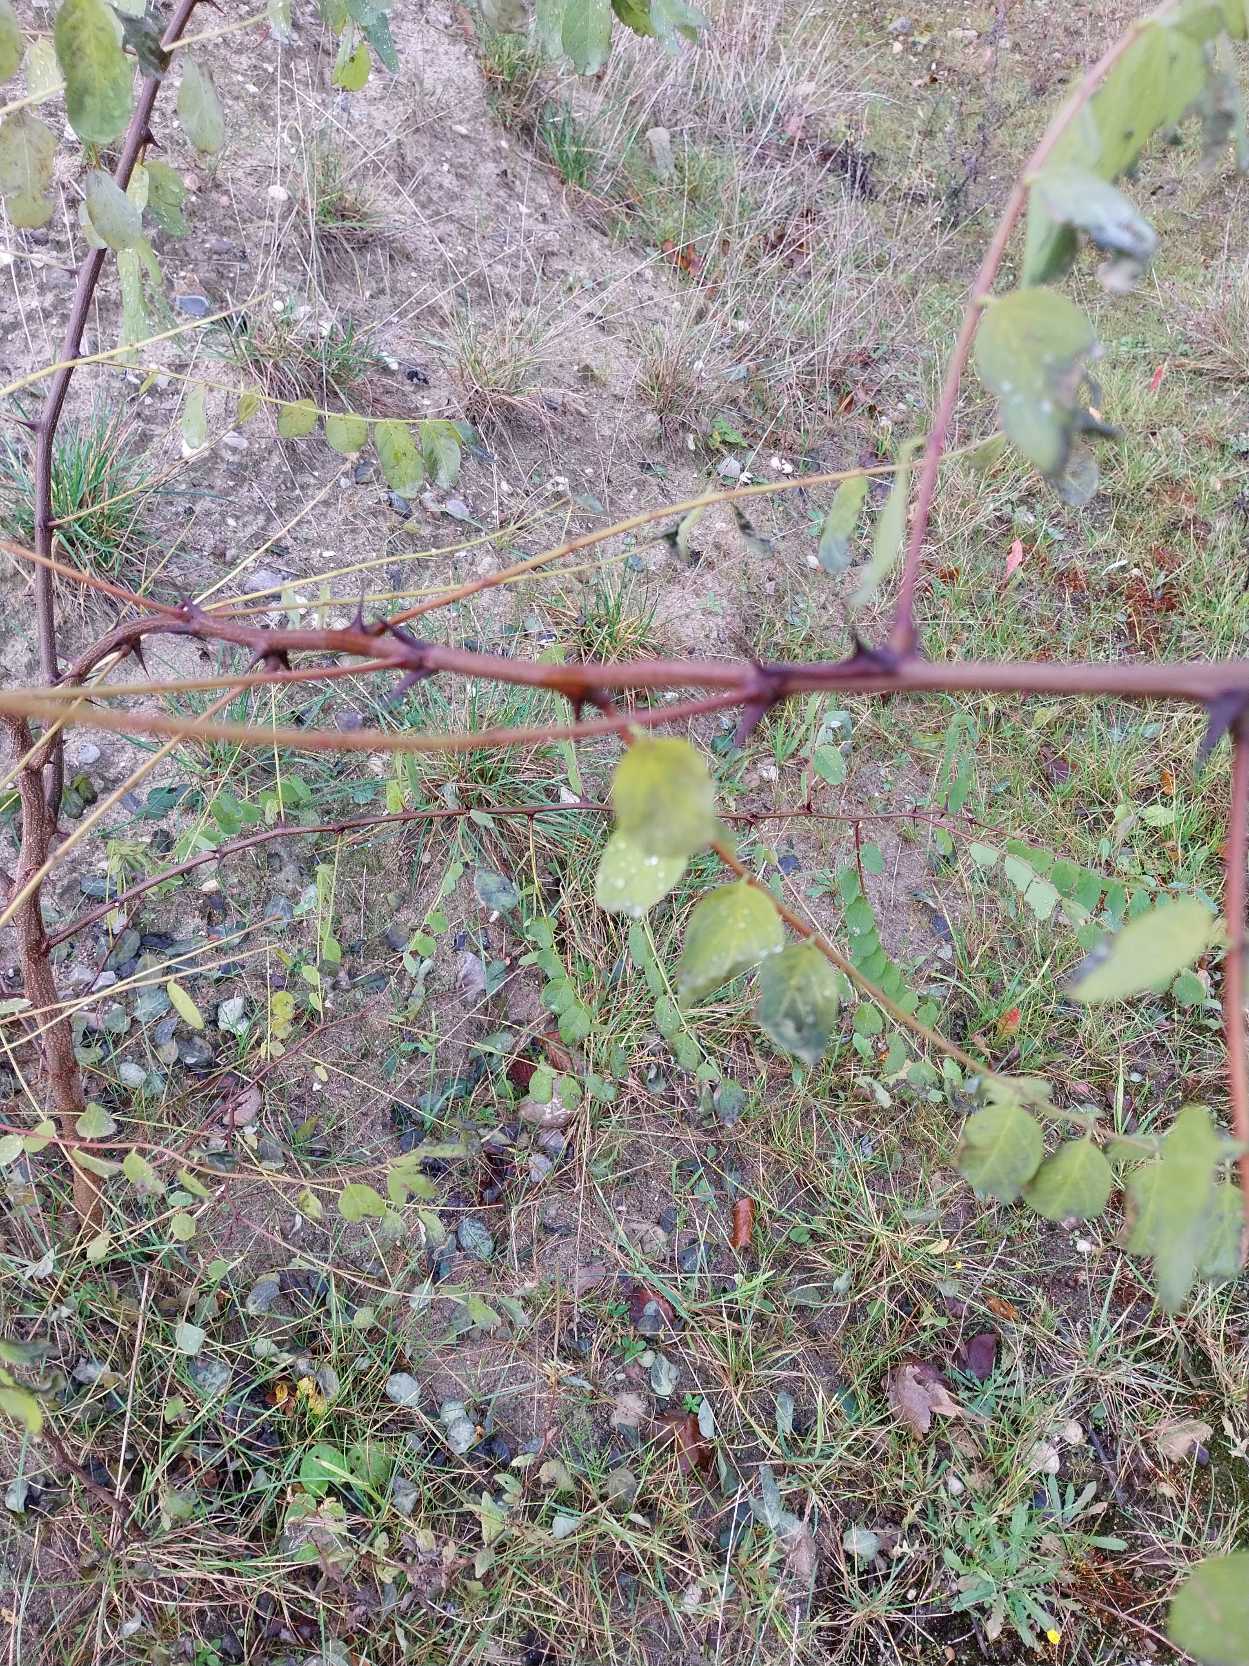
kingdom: Plantae
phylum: Tracheophyta
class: Magnoliopsida
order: Fabales
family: Fabaceae
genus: Robinia
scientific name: Robinia pseudoacacia
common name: Robinie
